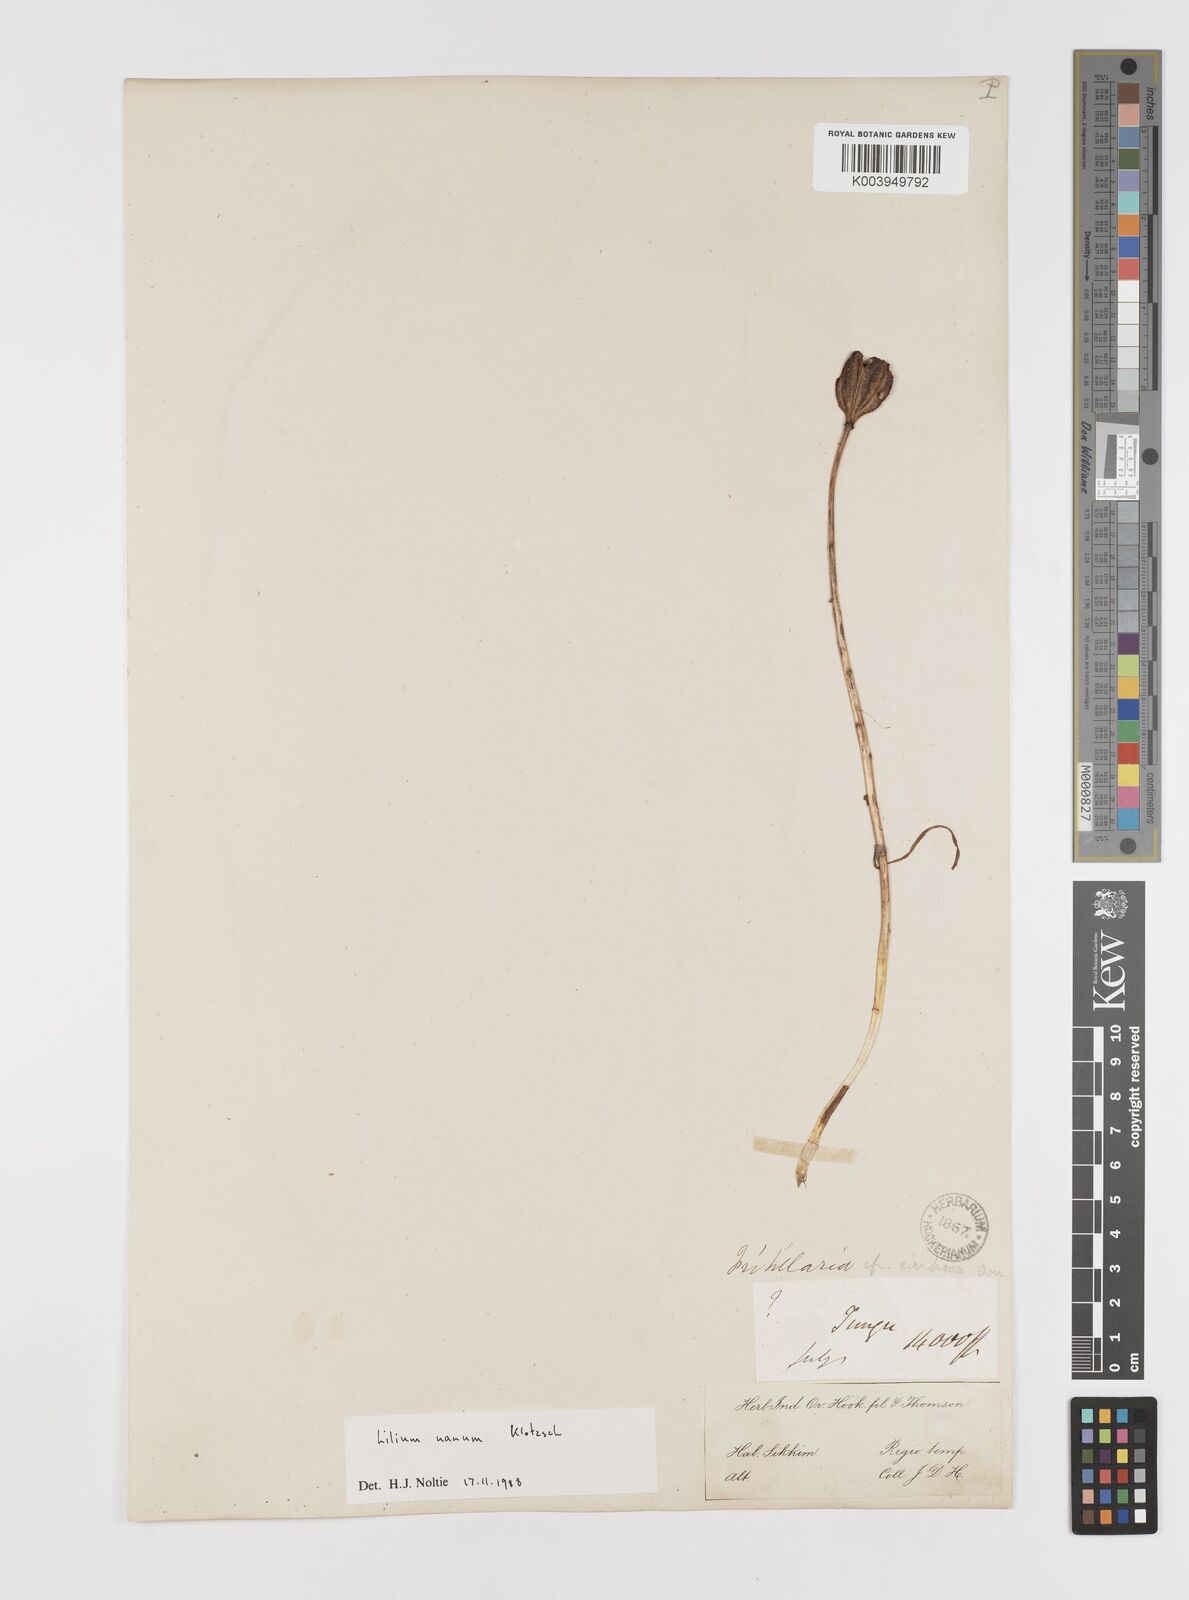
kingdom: Plantae
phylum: Tracheophyta
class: Liliopsida
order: Liliales
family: Liliaceae
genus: Lilium
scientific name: Lilium nanum
